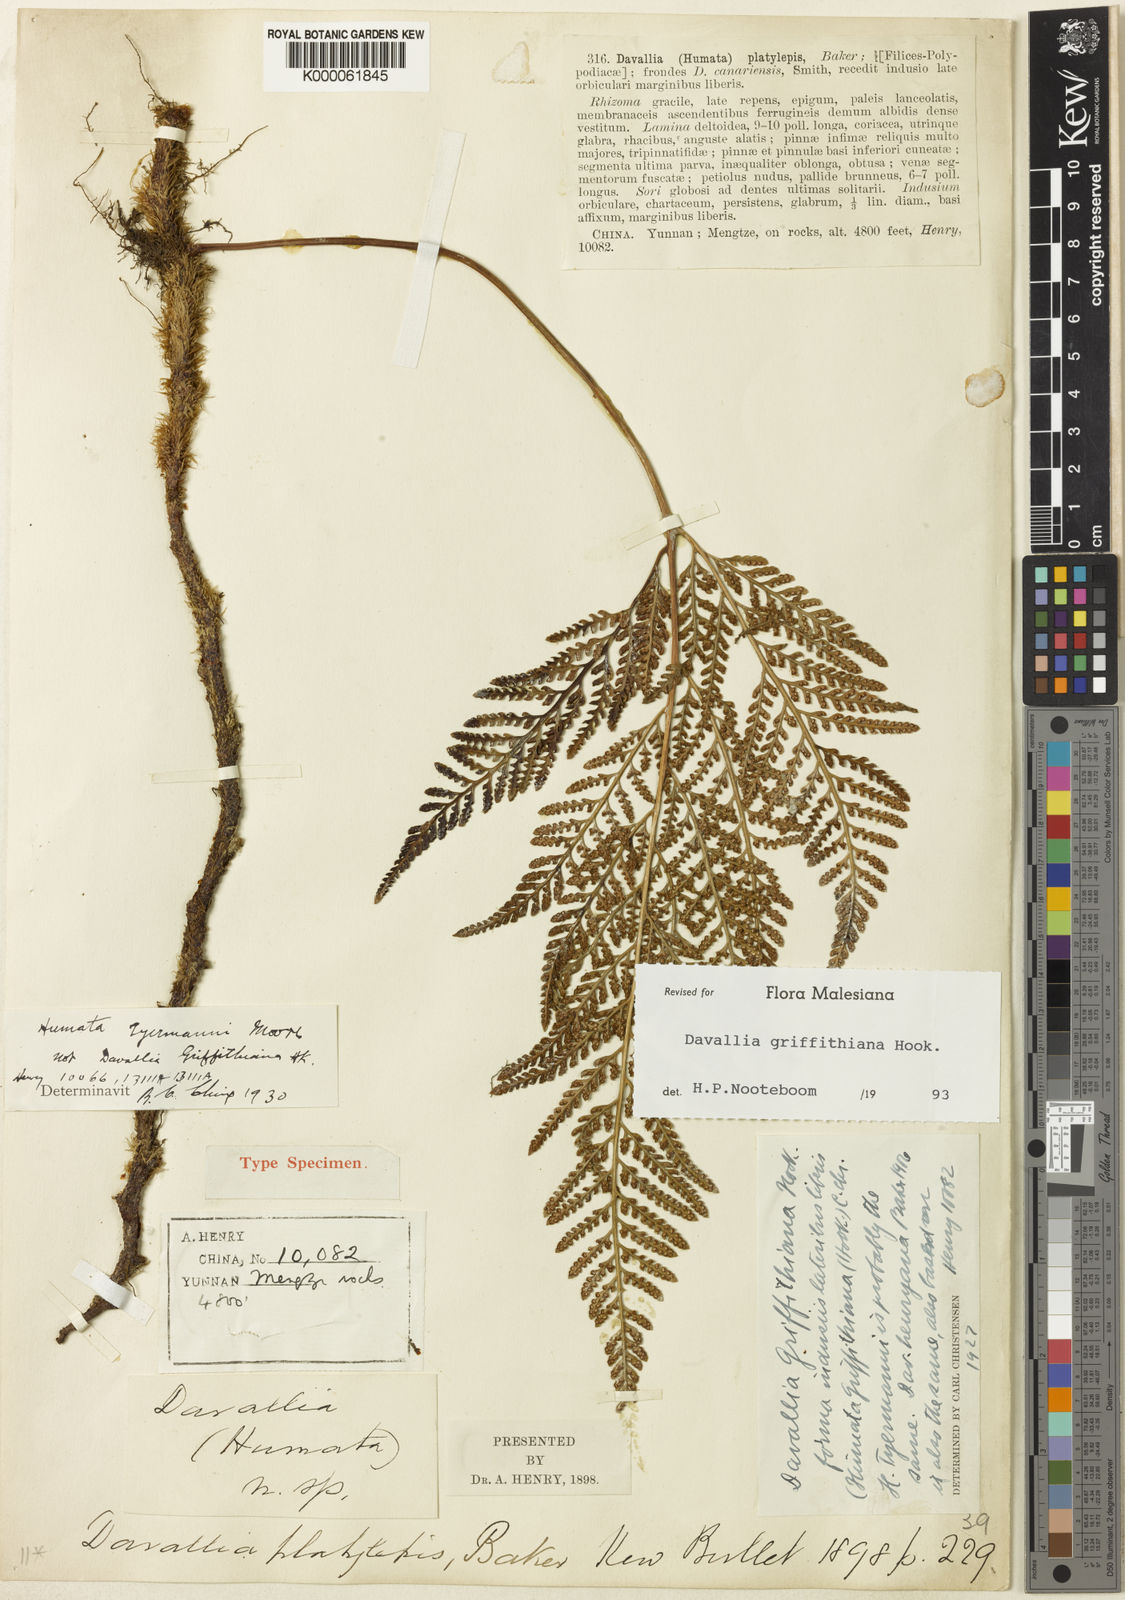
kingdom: Plantae
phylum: Tracheophyta
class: Polypodiopsida
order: Polypodiales
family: Davalliaceae
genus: Davallia
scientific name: Davallia griffithiana
